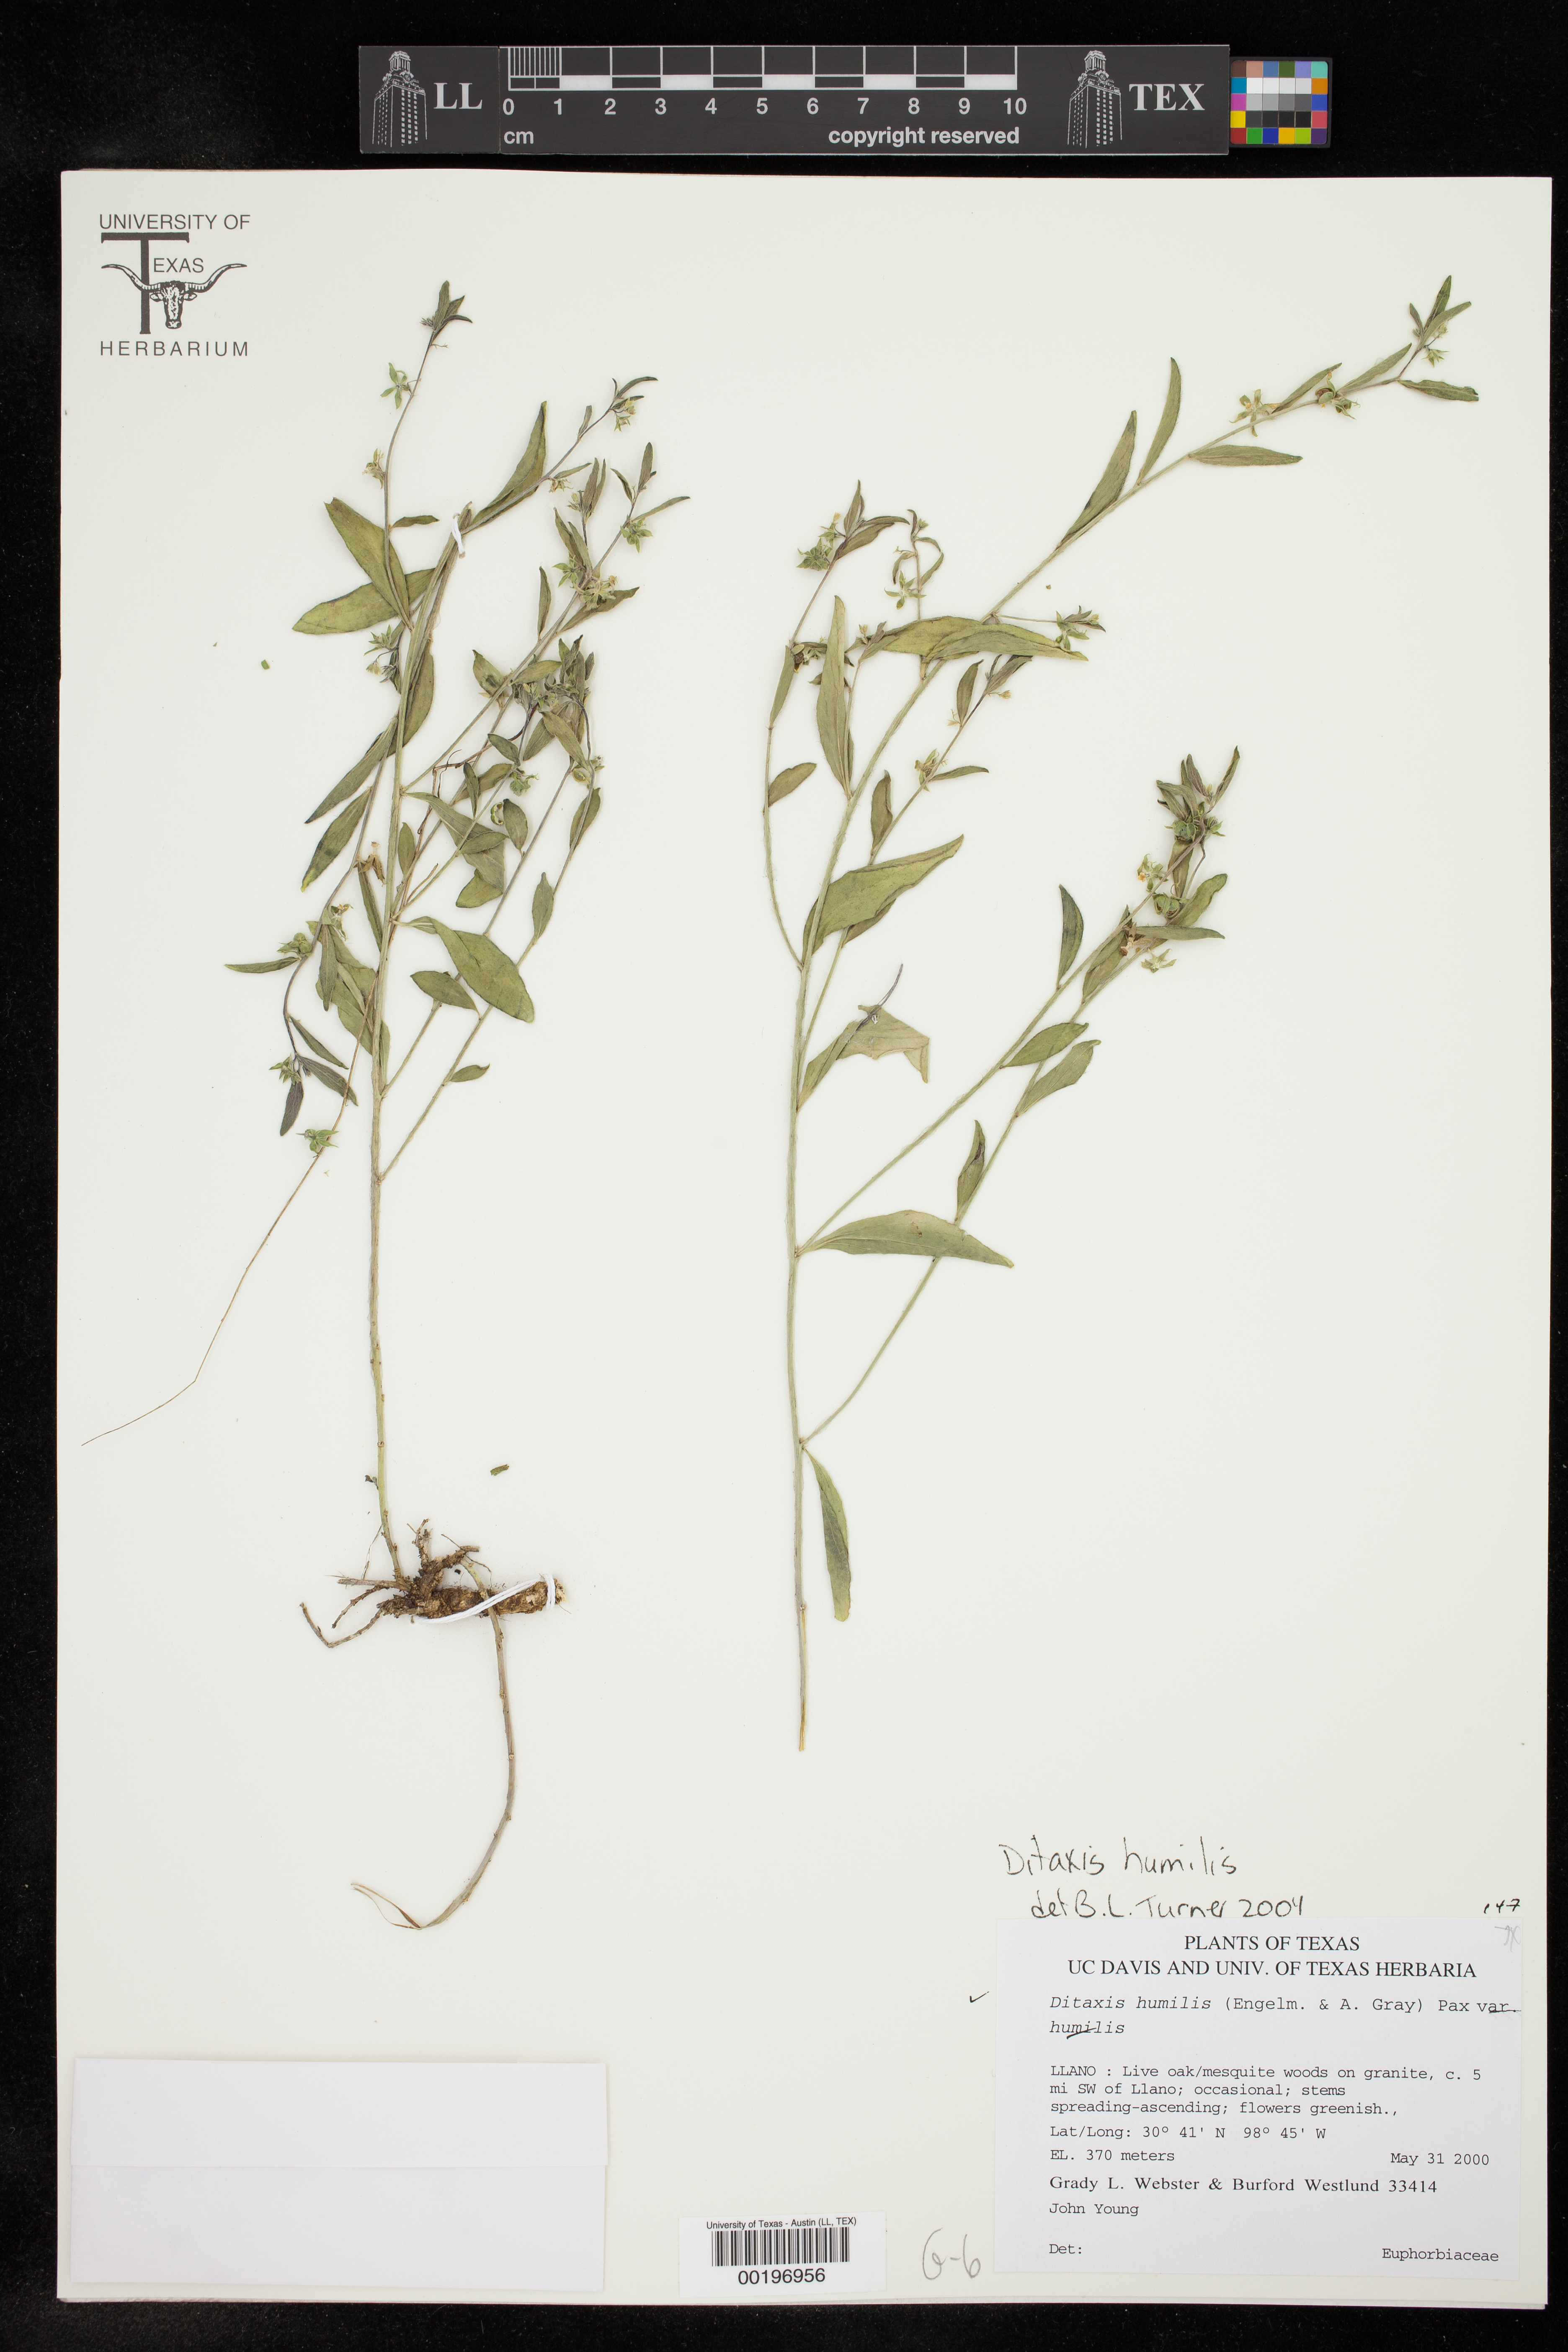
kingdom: Plantae
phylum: Tracheophyta
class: Magnoliopsida
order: Malpighiales
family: Euphorbiaceae
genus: Ditaxis
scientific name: Ditaxis humilis
